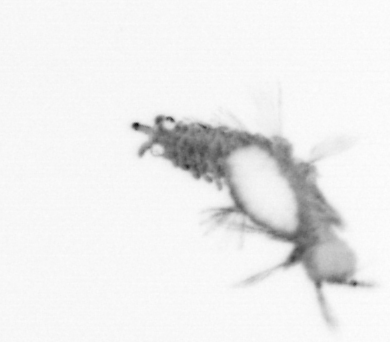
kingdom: Animalia
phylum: Annelida
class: Polychaeta
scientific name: Polychaeta
